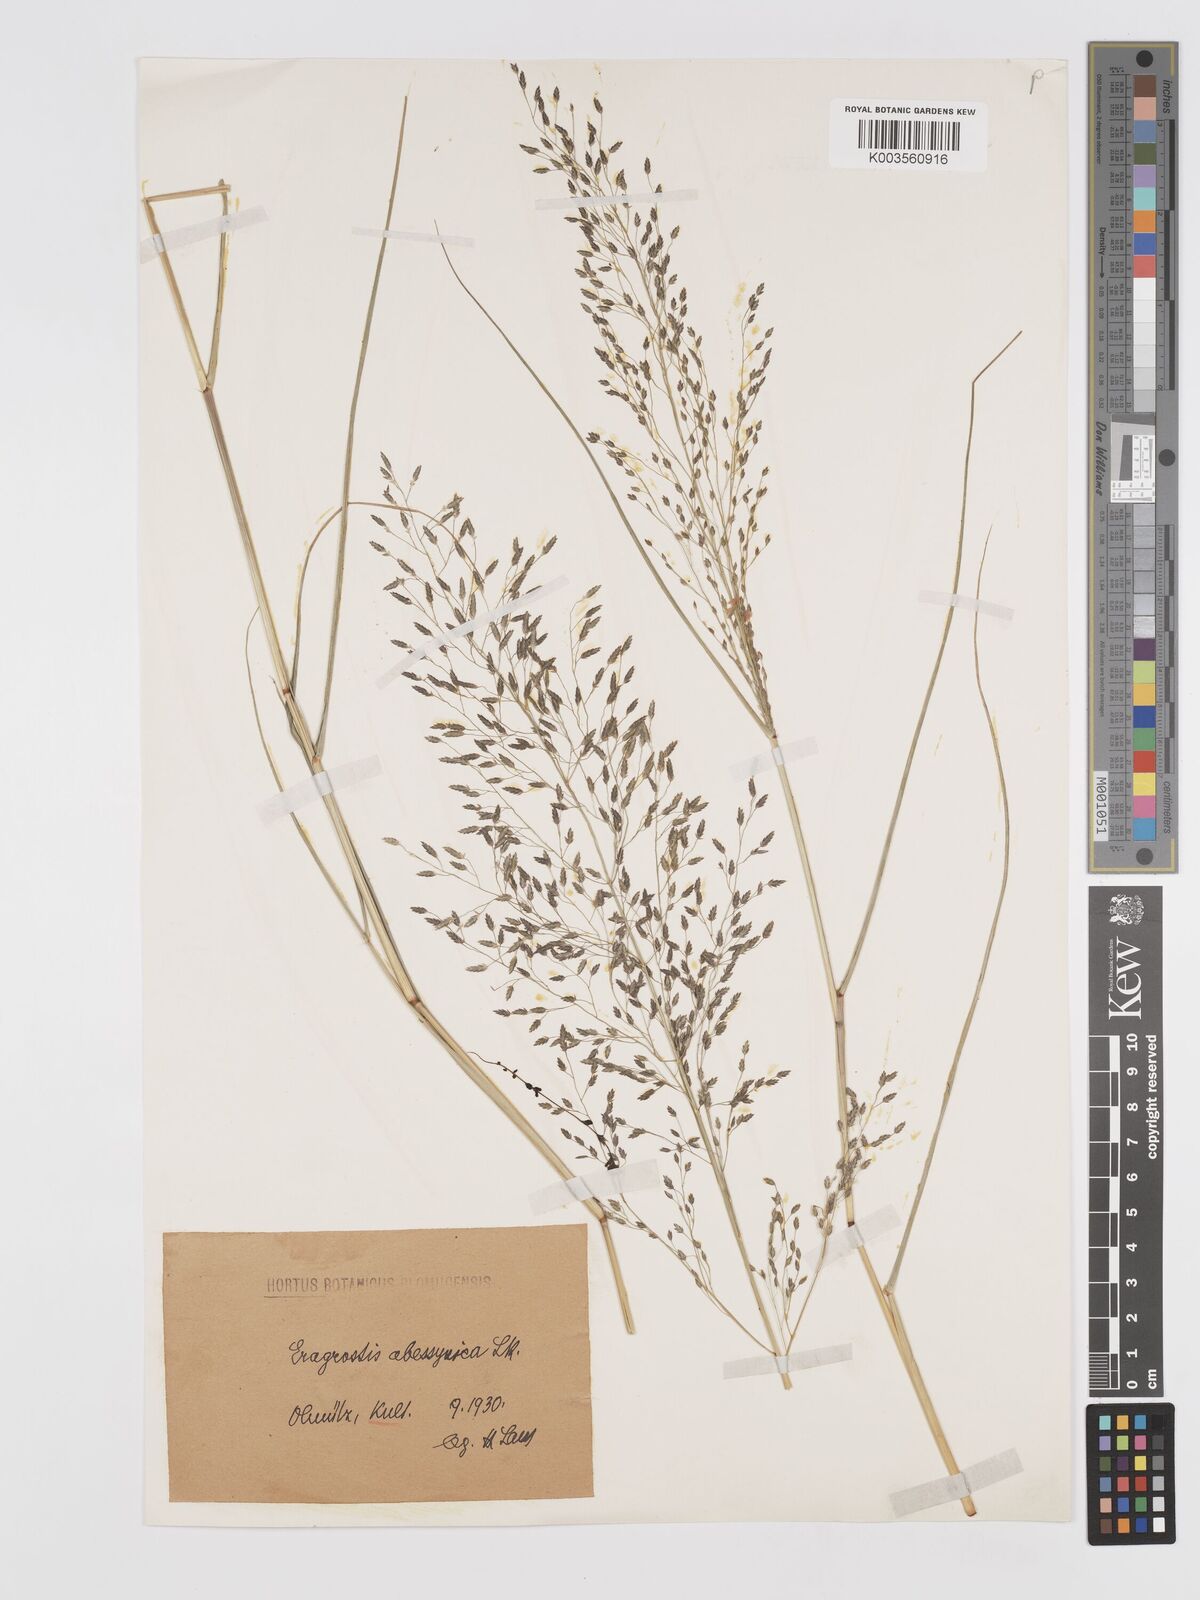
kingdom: Plantae
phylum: Tracheophyta
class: Liliopsida
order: Poales
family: Poaceae
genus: Eragrostis
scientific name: Eragrostis mexicana
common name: Mexican love grass
